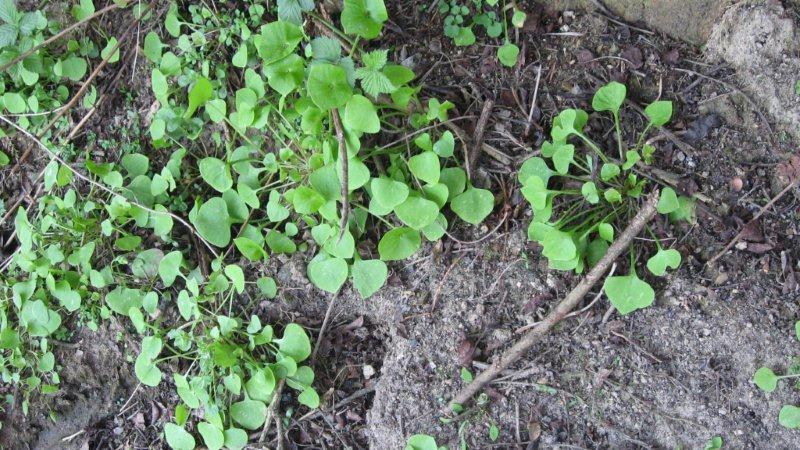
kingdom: Plantae
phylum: Tracheophyta
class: Magnoliopsida
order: Caryophyllales
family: Montiaceae
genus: Claytonia
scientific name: Claytonia perfoliata
